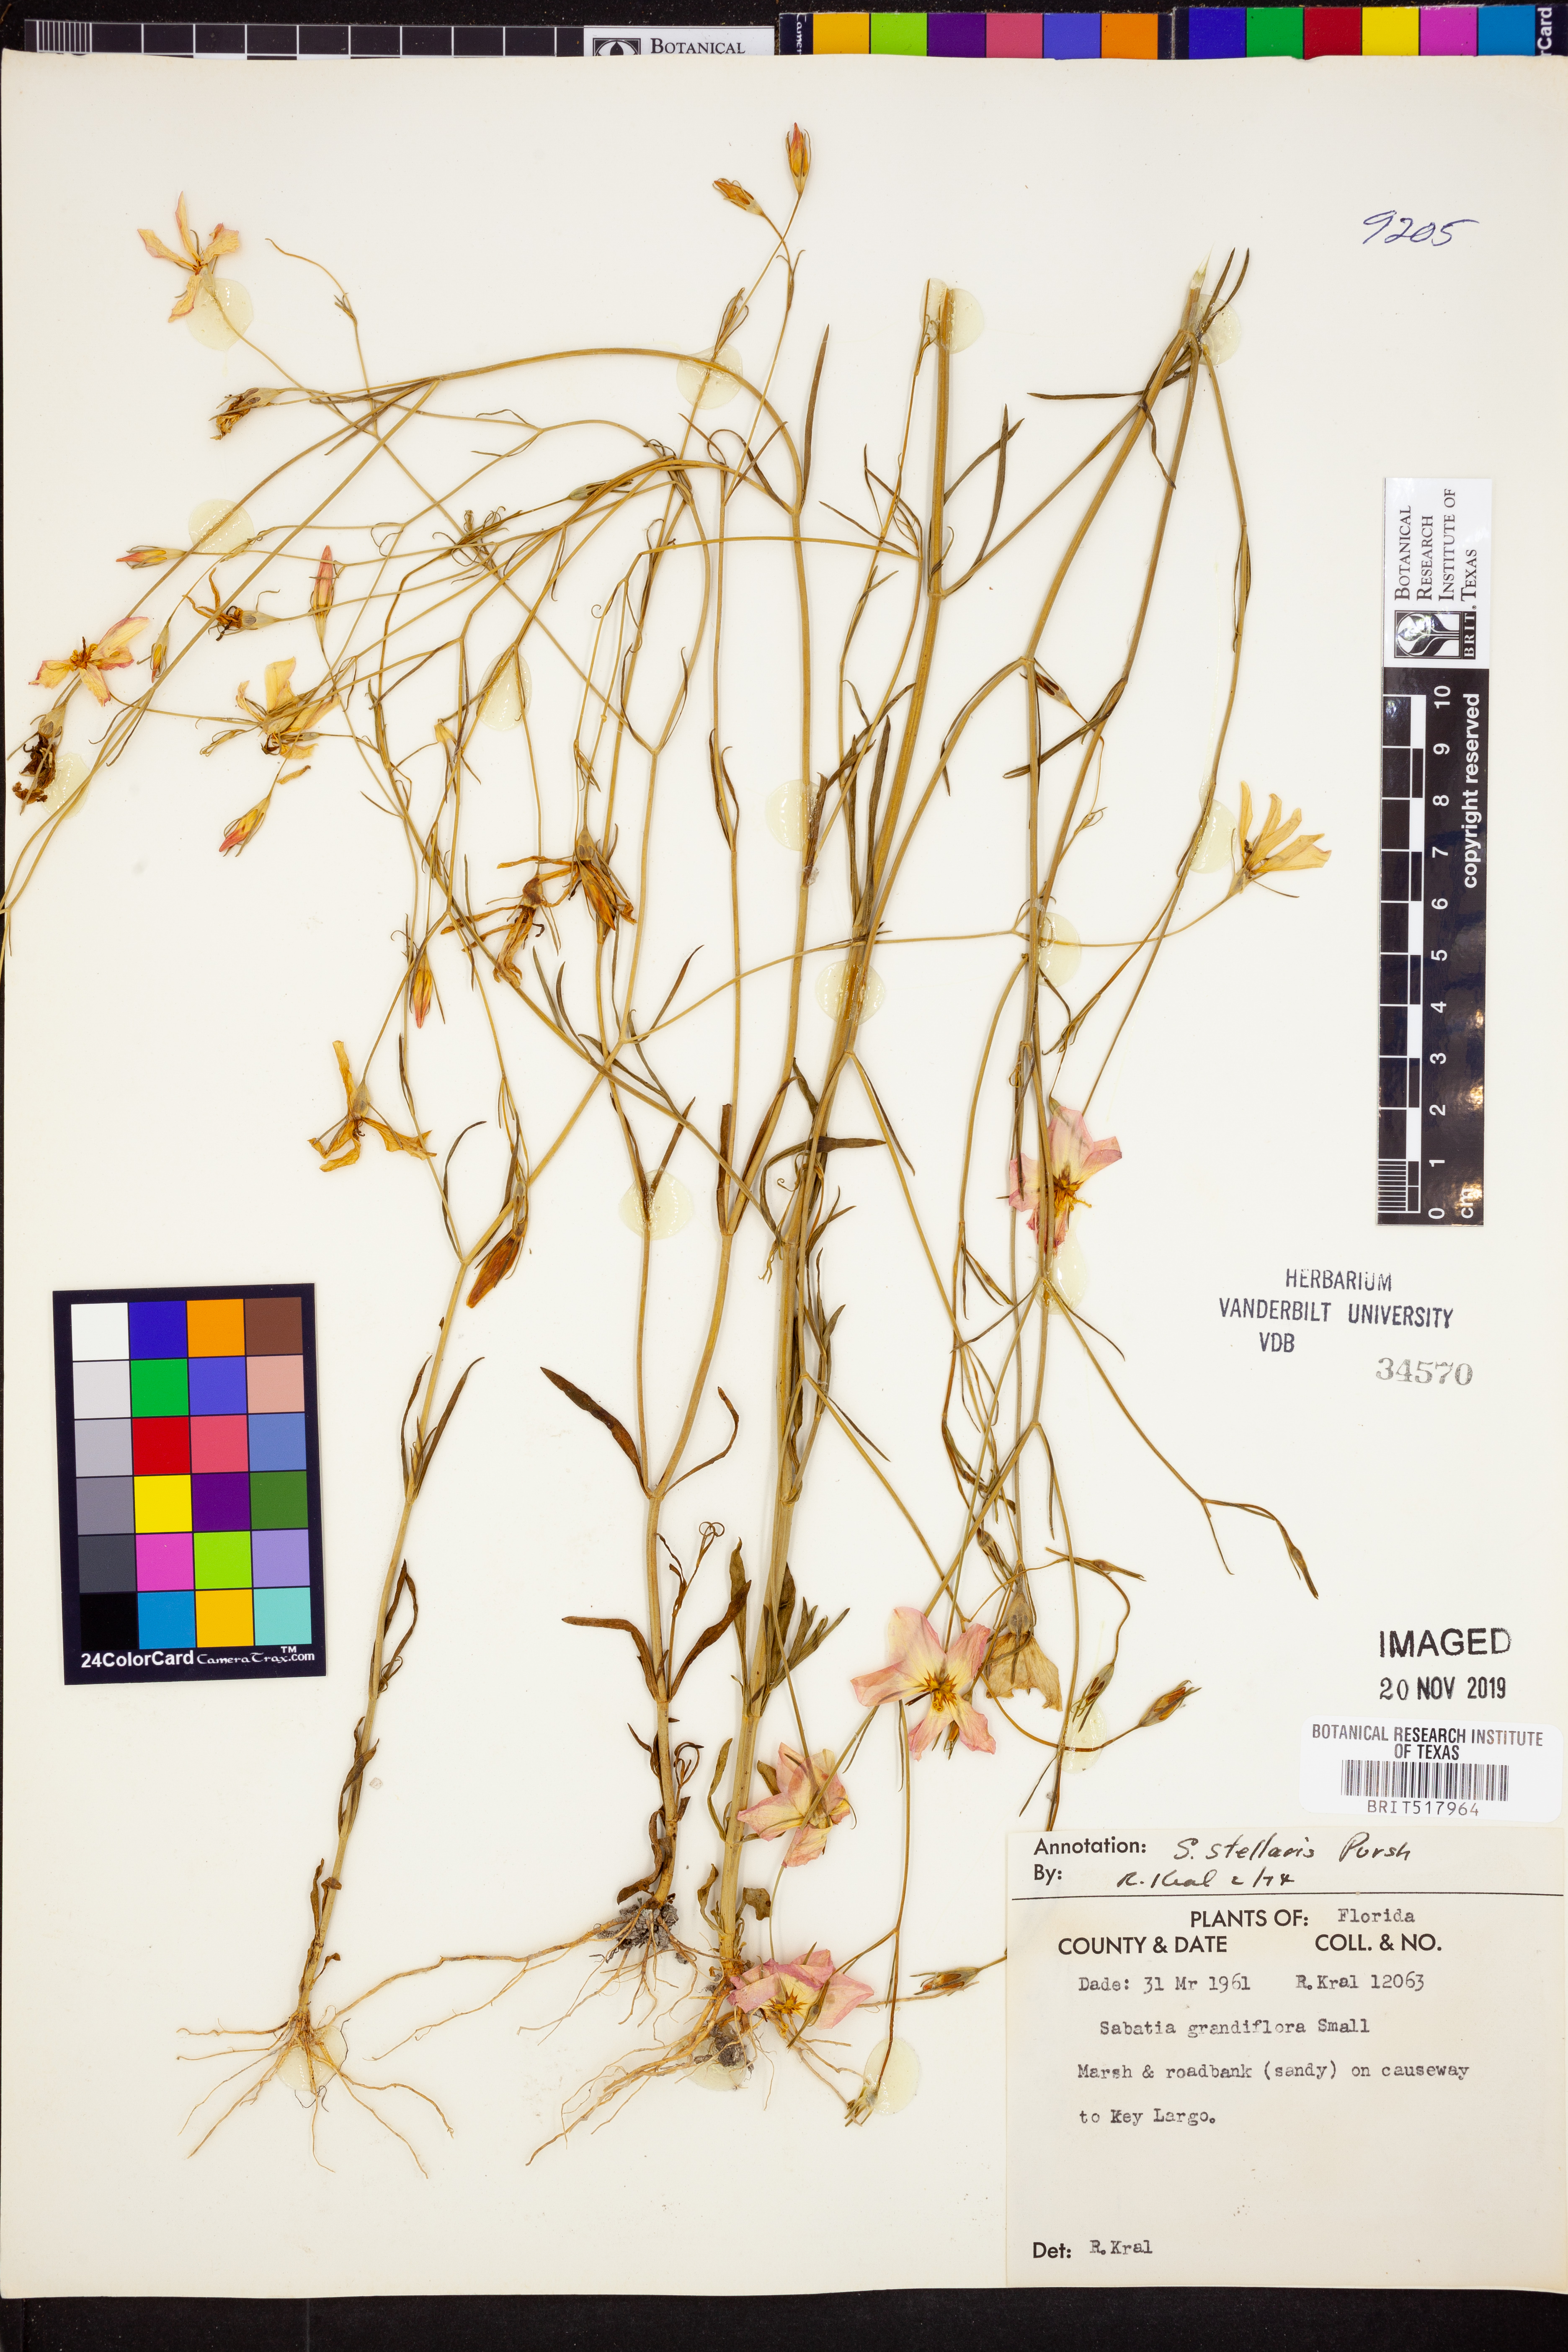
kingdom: Plantae
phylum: Tracheophyta
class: Magnoliopsida
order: Gentianales
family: Gentianaceae
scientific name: Gentianaceae
